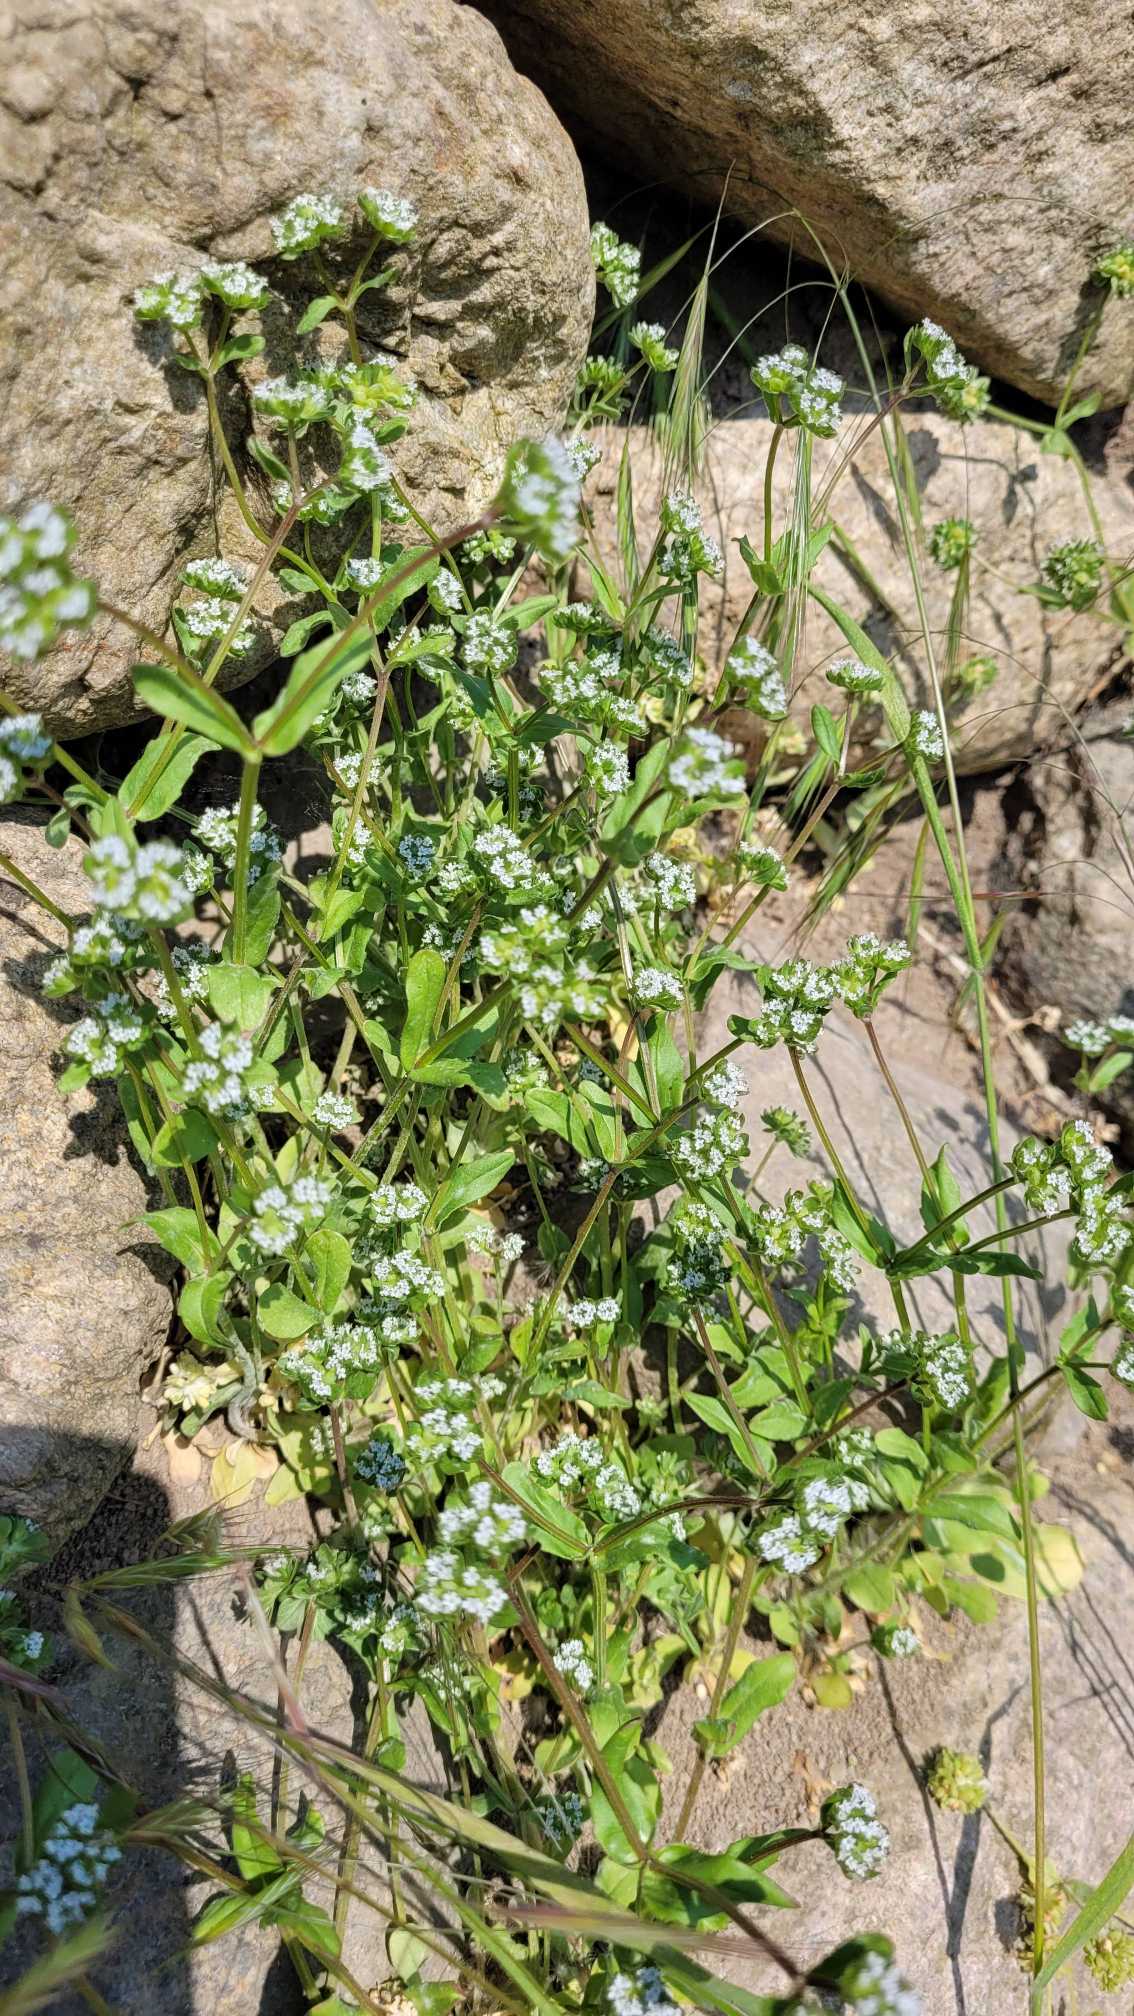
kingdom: Plantae
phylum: Tracheophyta
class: Magnoliopsida
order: Dipsacales
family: Caprifoliaceae
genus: Valerianella
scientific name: Valerianella locusta
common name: Tandfri vårsalat
